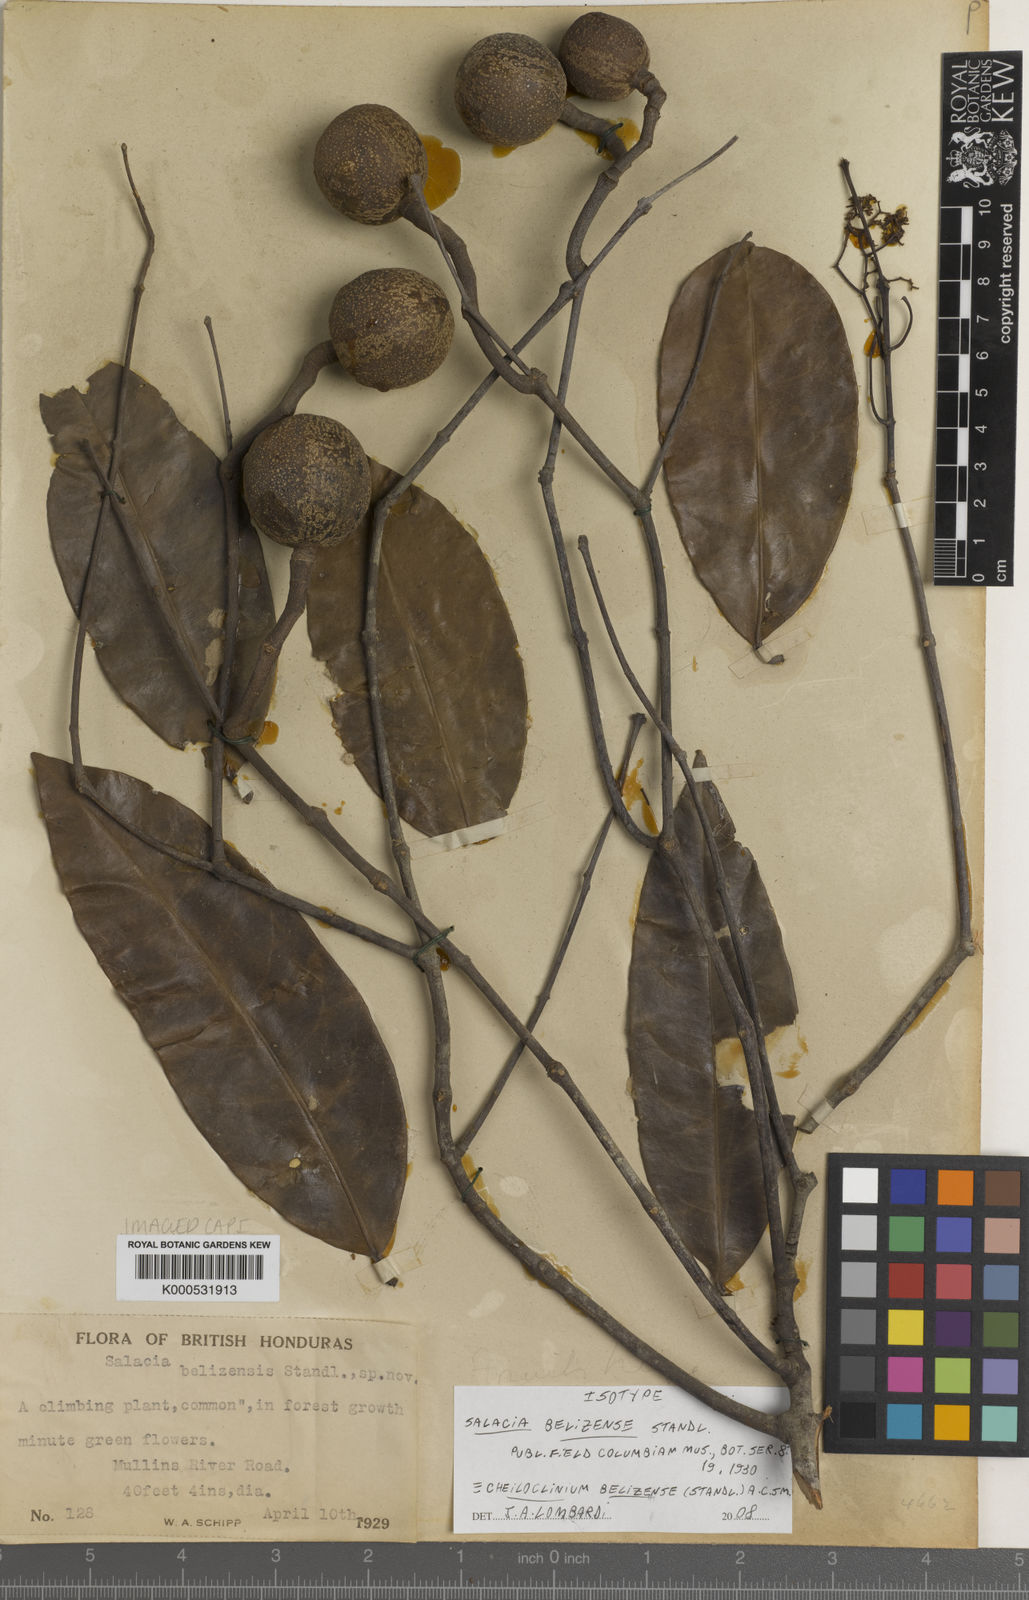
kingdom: Plantae
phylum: Tracheophyta
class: Magnoliopsida
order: Celastrales
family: Celastraceae
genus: Cheiloclinium
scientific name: Cheiloclinium belizense
